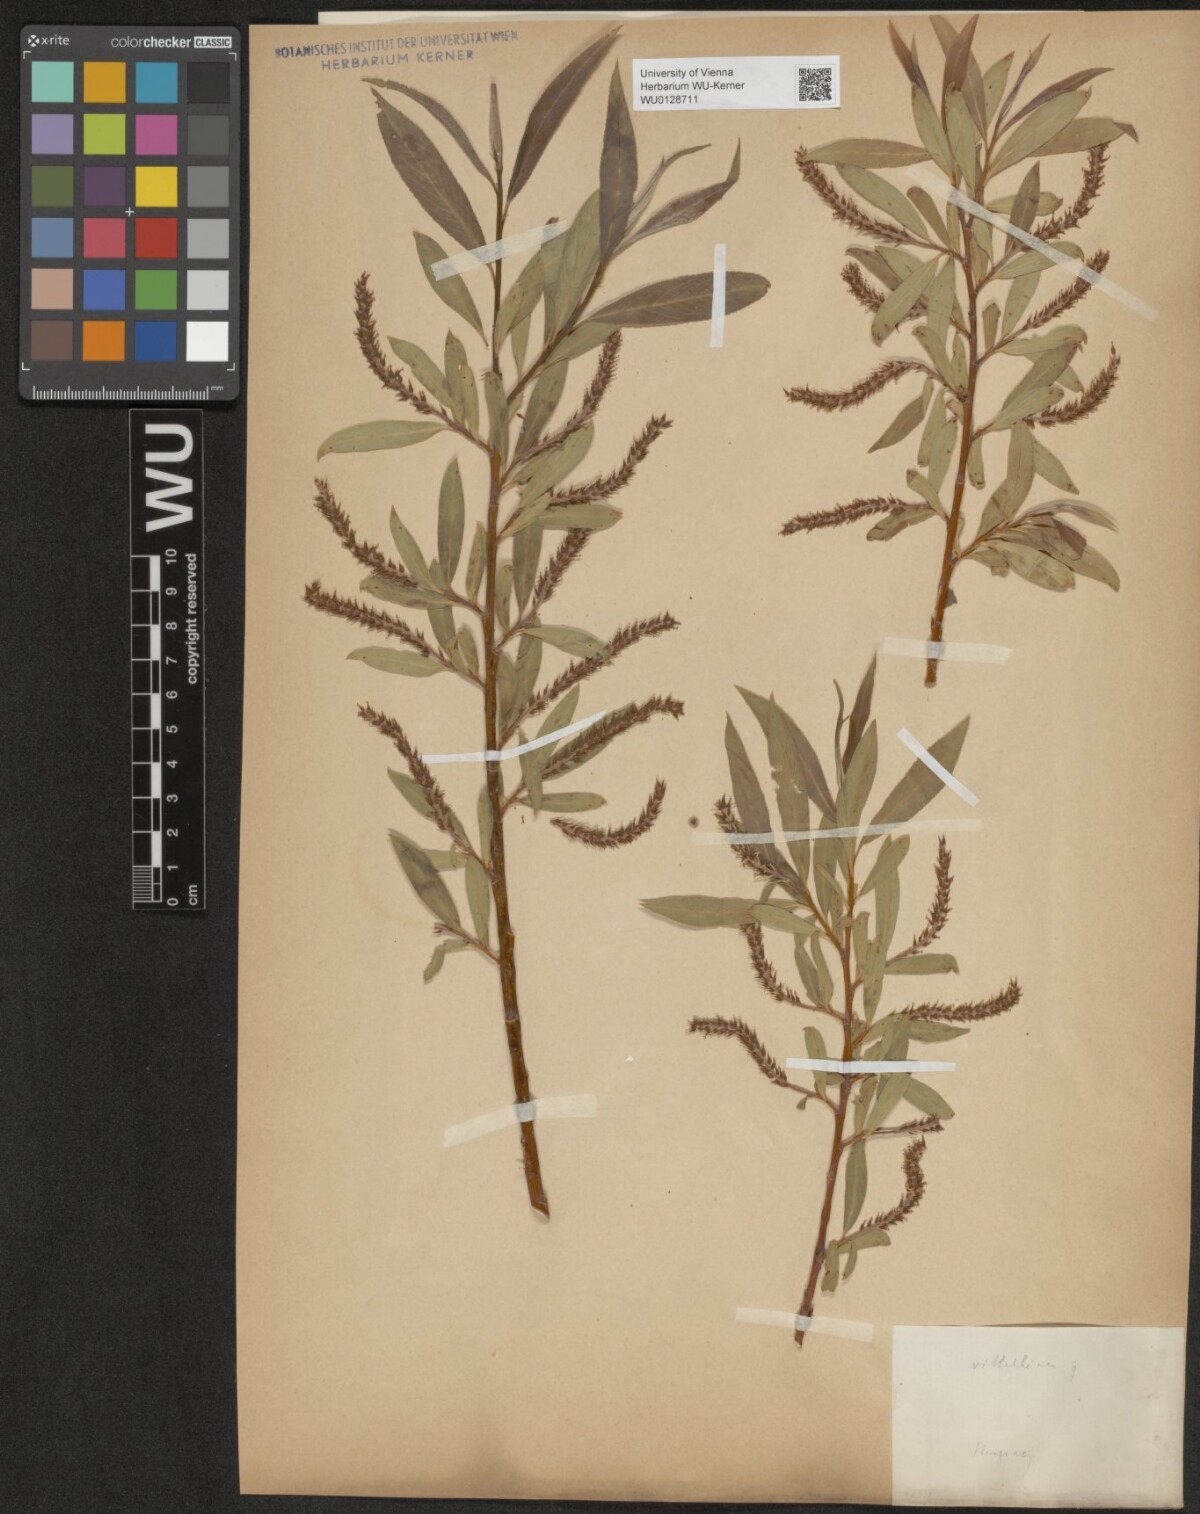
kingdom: Plantae
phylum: Tracheophyta
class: Magnoliopsida
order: Malpighiales
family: Salicaceae
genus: Salix
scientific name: Salix alba
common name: White willow
